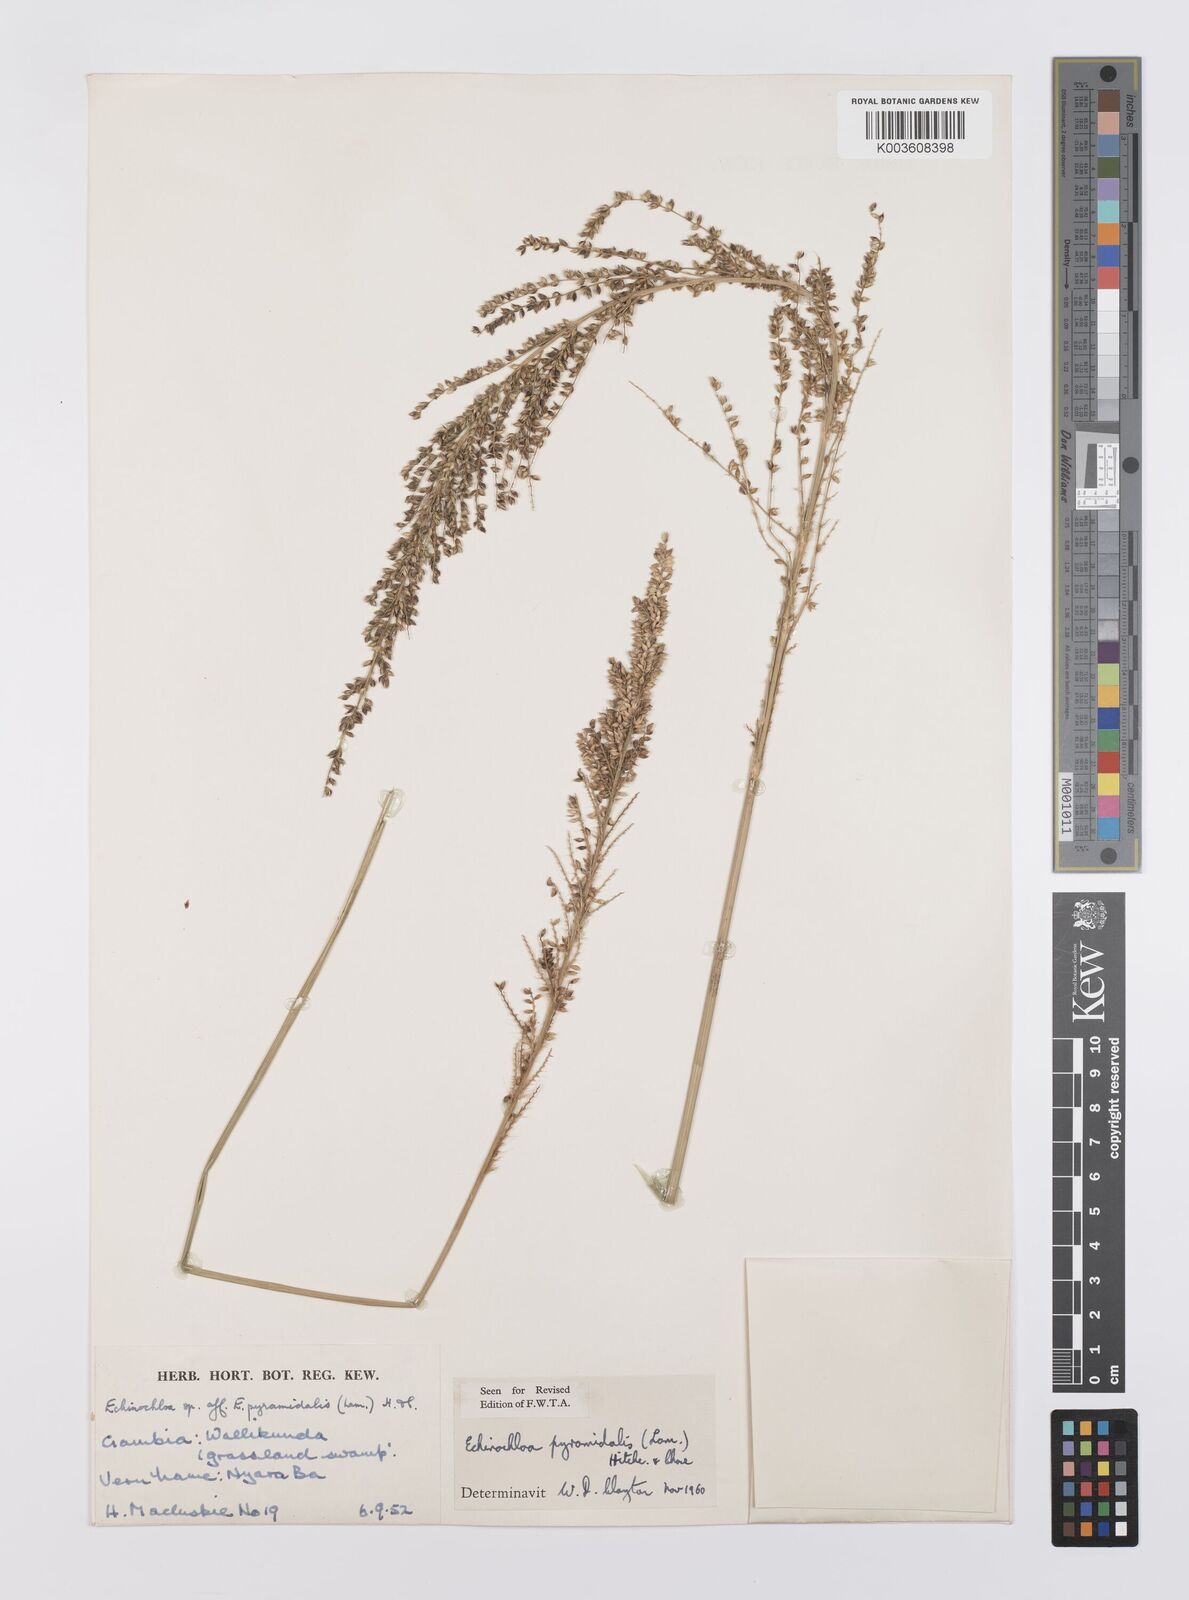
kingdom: Plantae
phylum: Tracheophyta
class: Liliopsida
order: Poales
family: Poaceae
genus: Echinochloa
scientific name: Echinochloa pyramidalis
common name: Antelope grass
